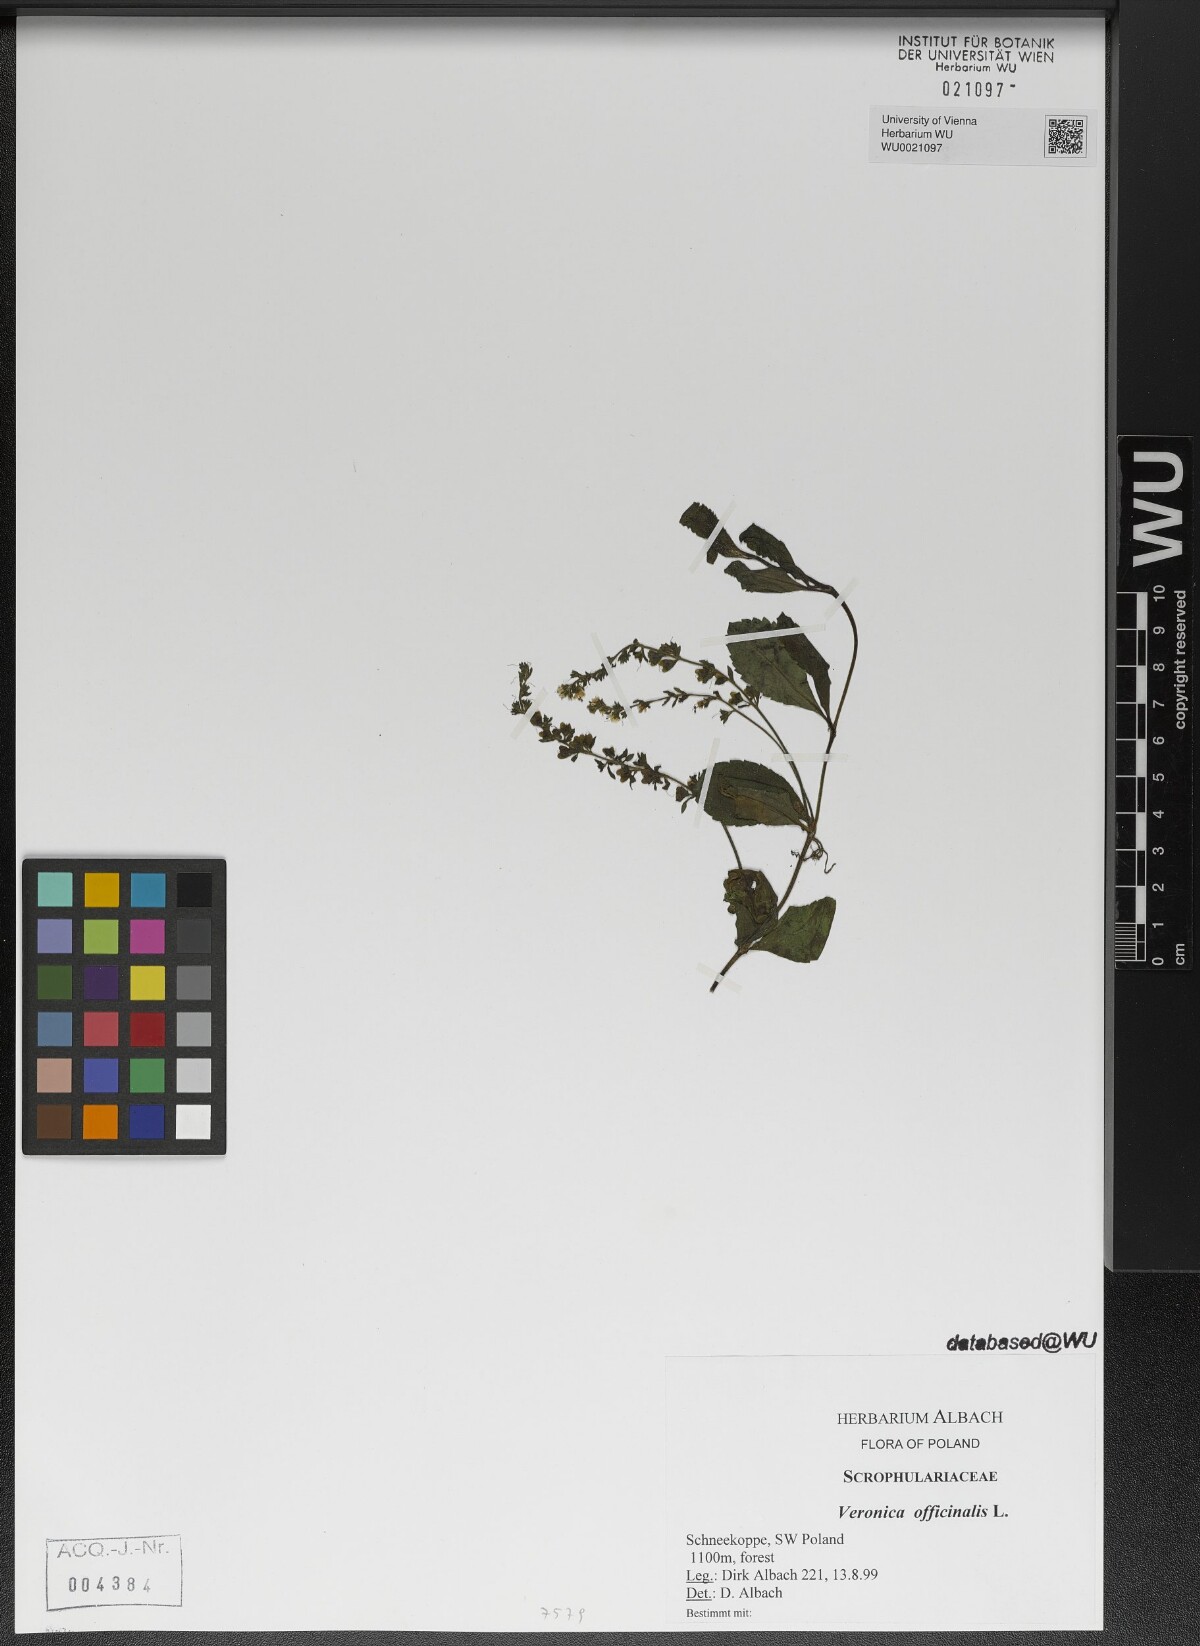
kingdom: Plantae
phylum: Tracheophyta
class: Magnoliopsida
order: Lamiales
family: Plantaginaceae
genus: Veronica
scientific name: Veronica officinalis
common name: Common speedwell
